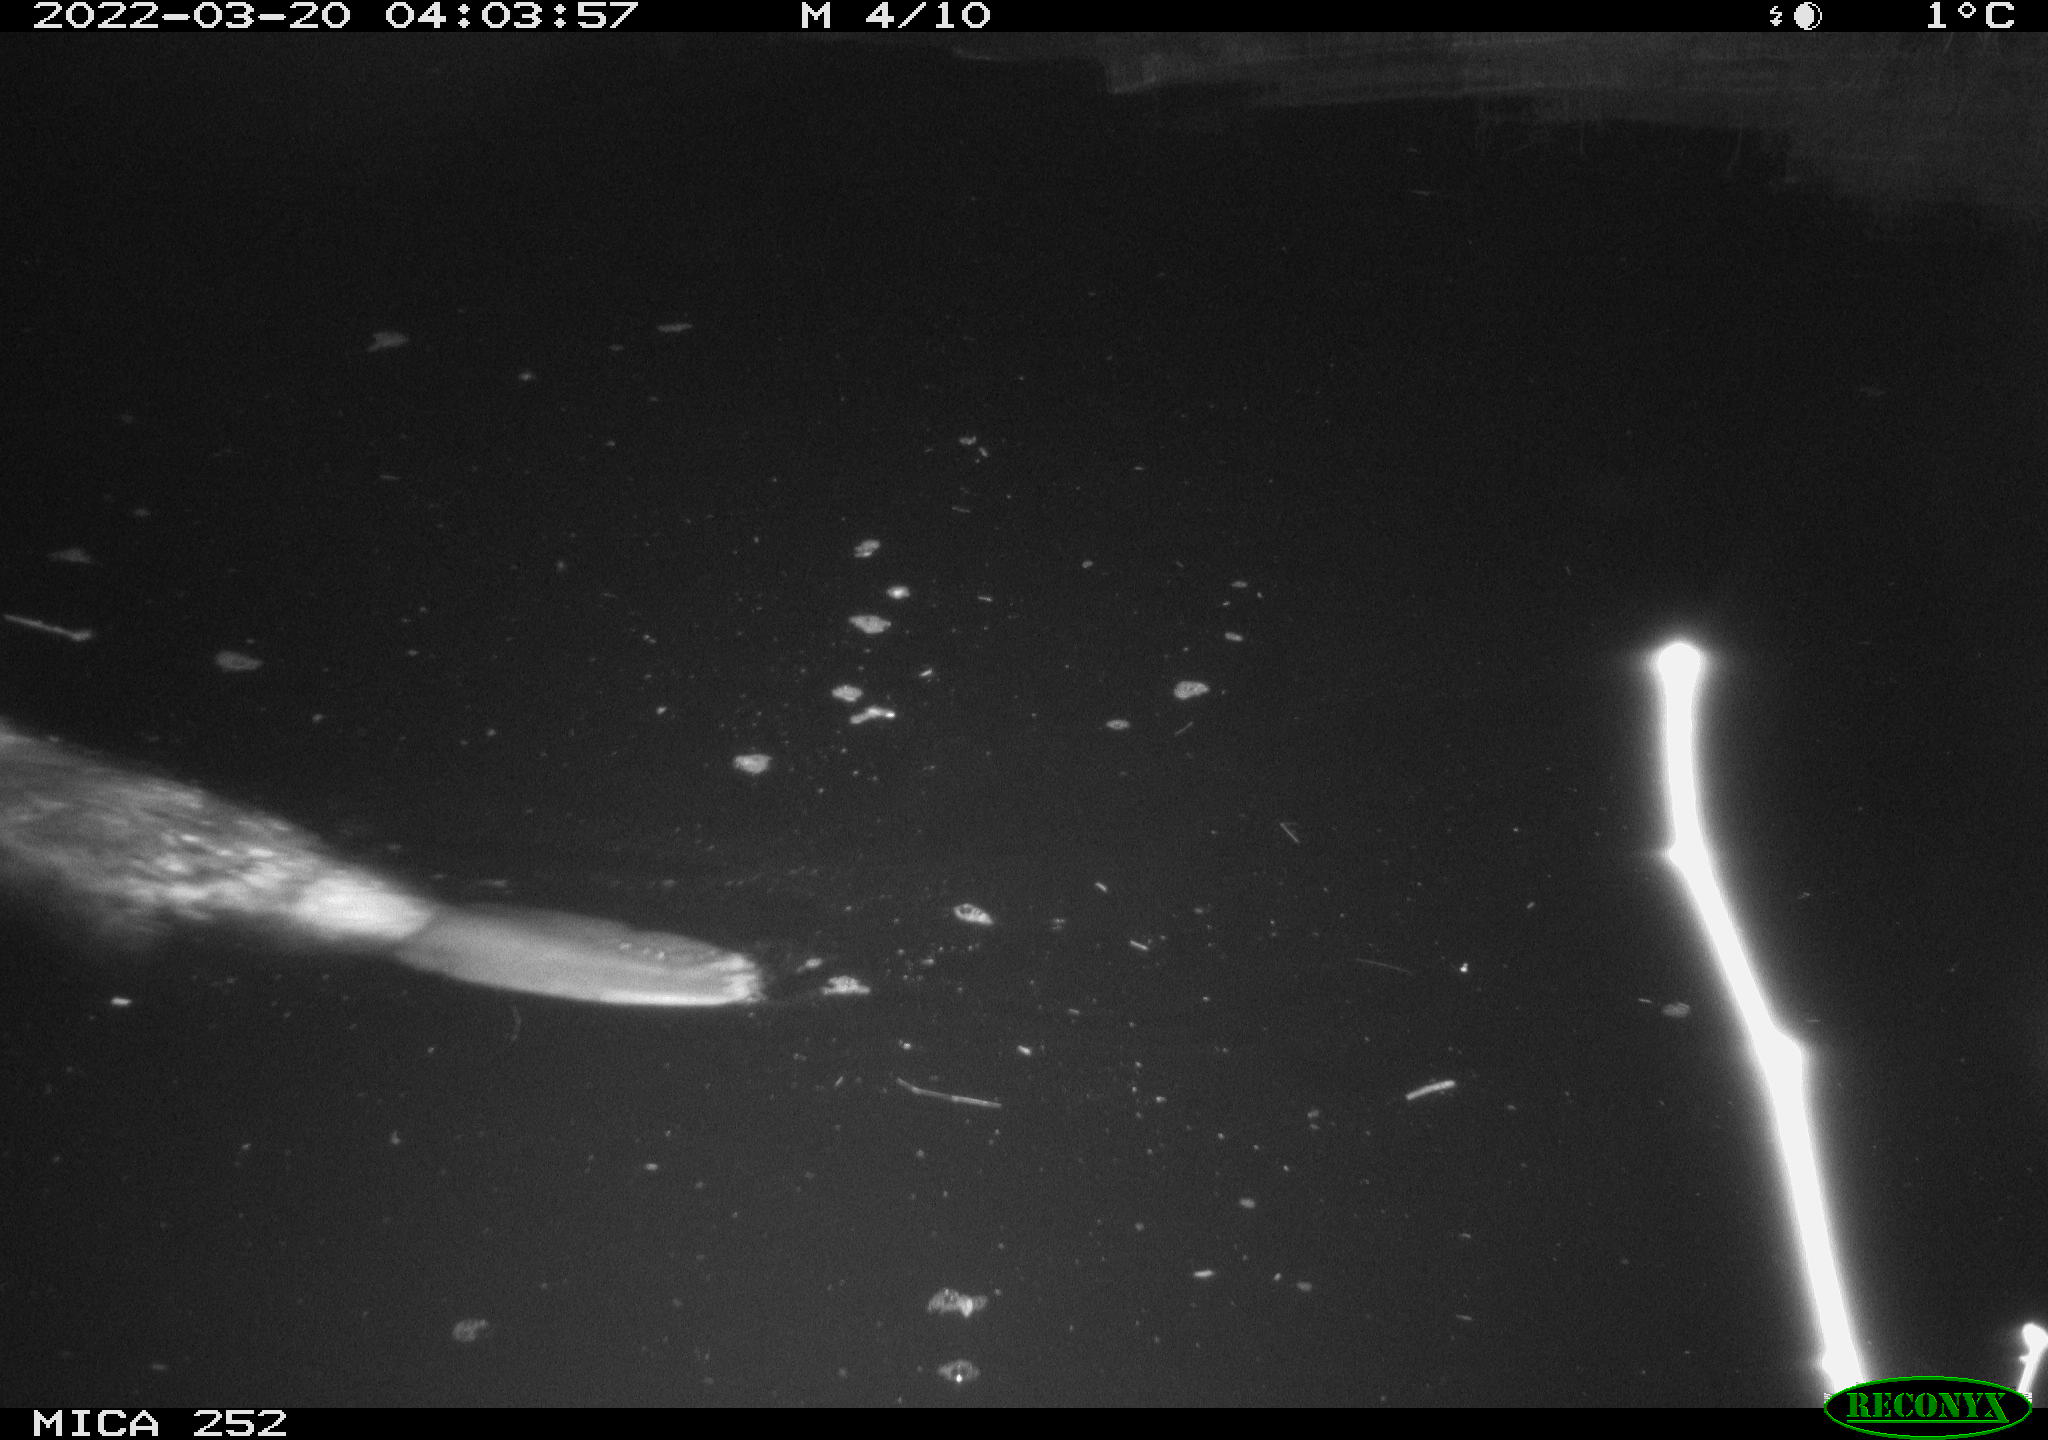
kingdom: Animalia
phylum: Chordata
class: Mammalia
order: Rodentia
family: Castoridae
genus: Castor
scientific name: Castor fiber
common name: Eurasian beaver
